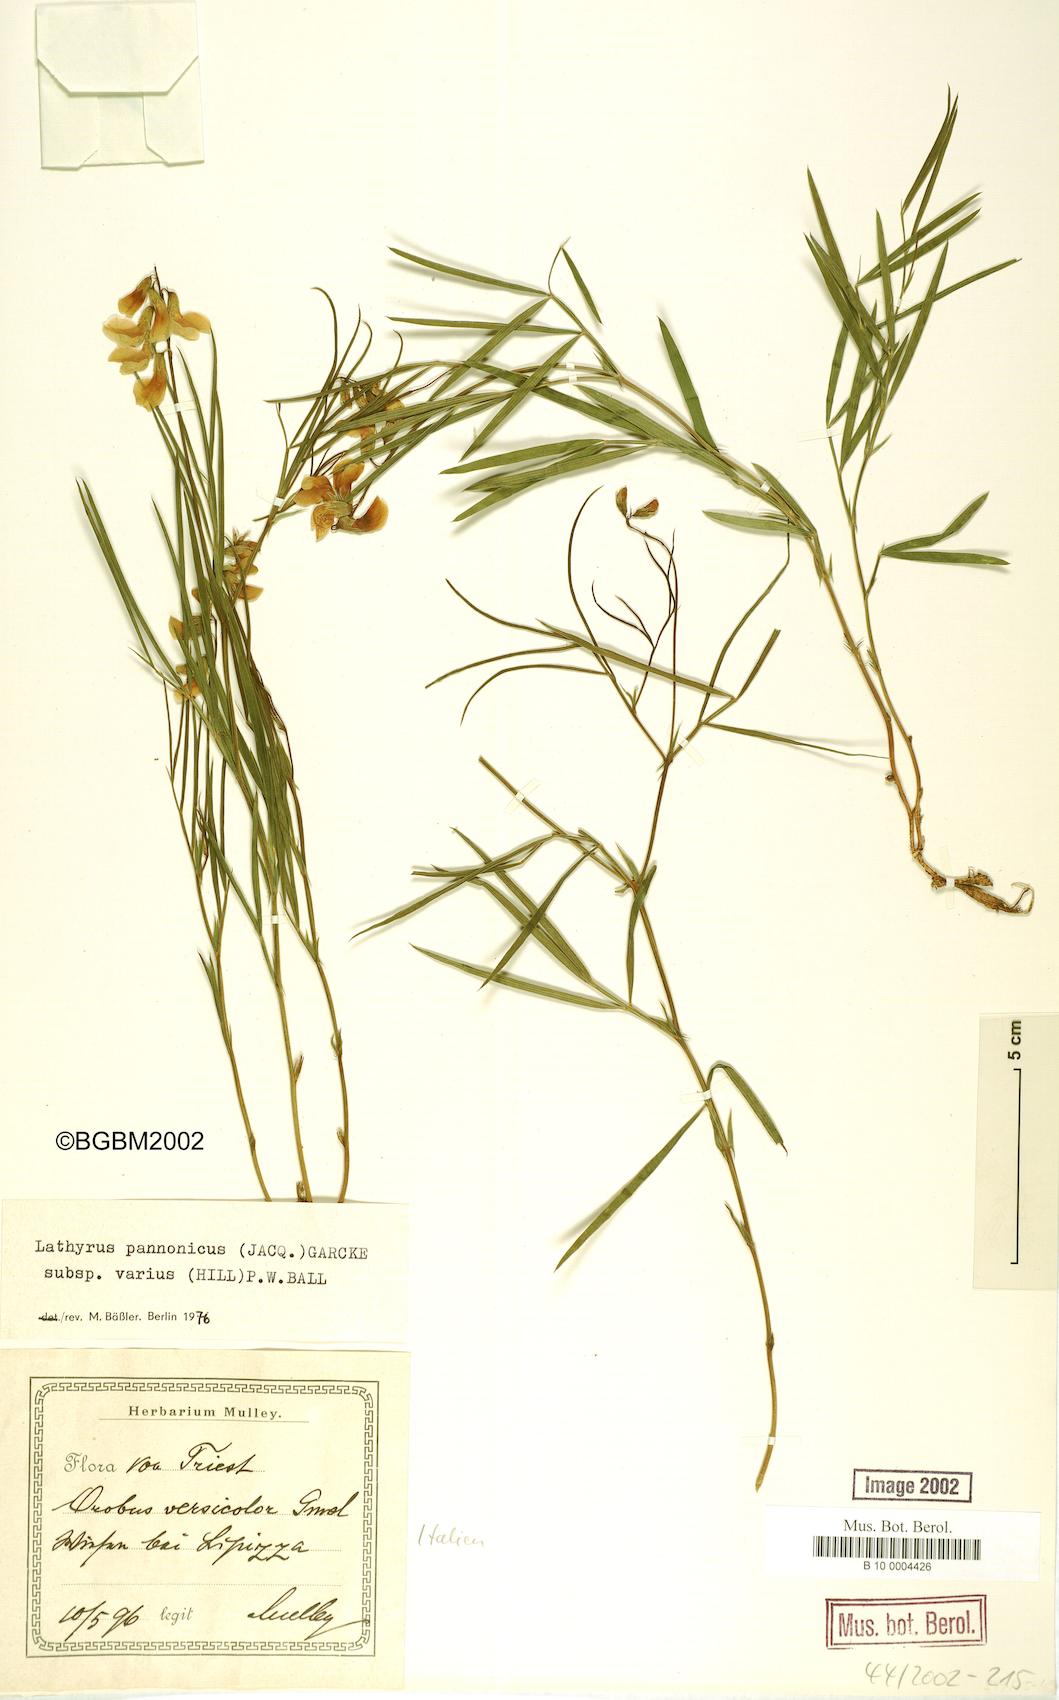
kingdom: Plantae
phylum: Tracheophyta
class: Magnoliopsida
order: Fabales
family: Fabaceae
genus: Lathyrus
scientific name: Lathyrus pannonicus
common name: Pea
